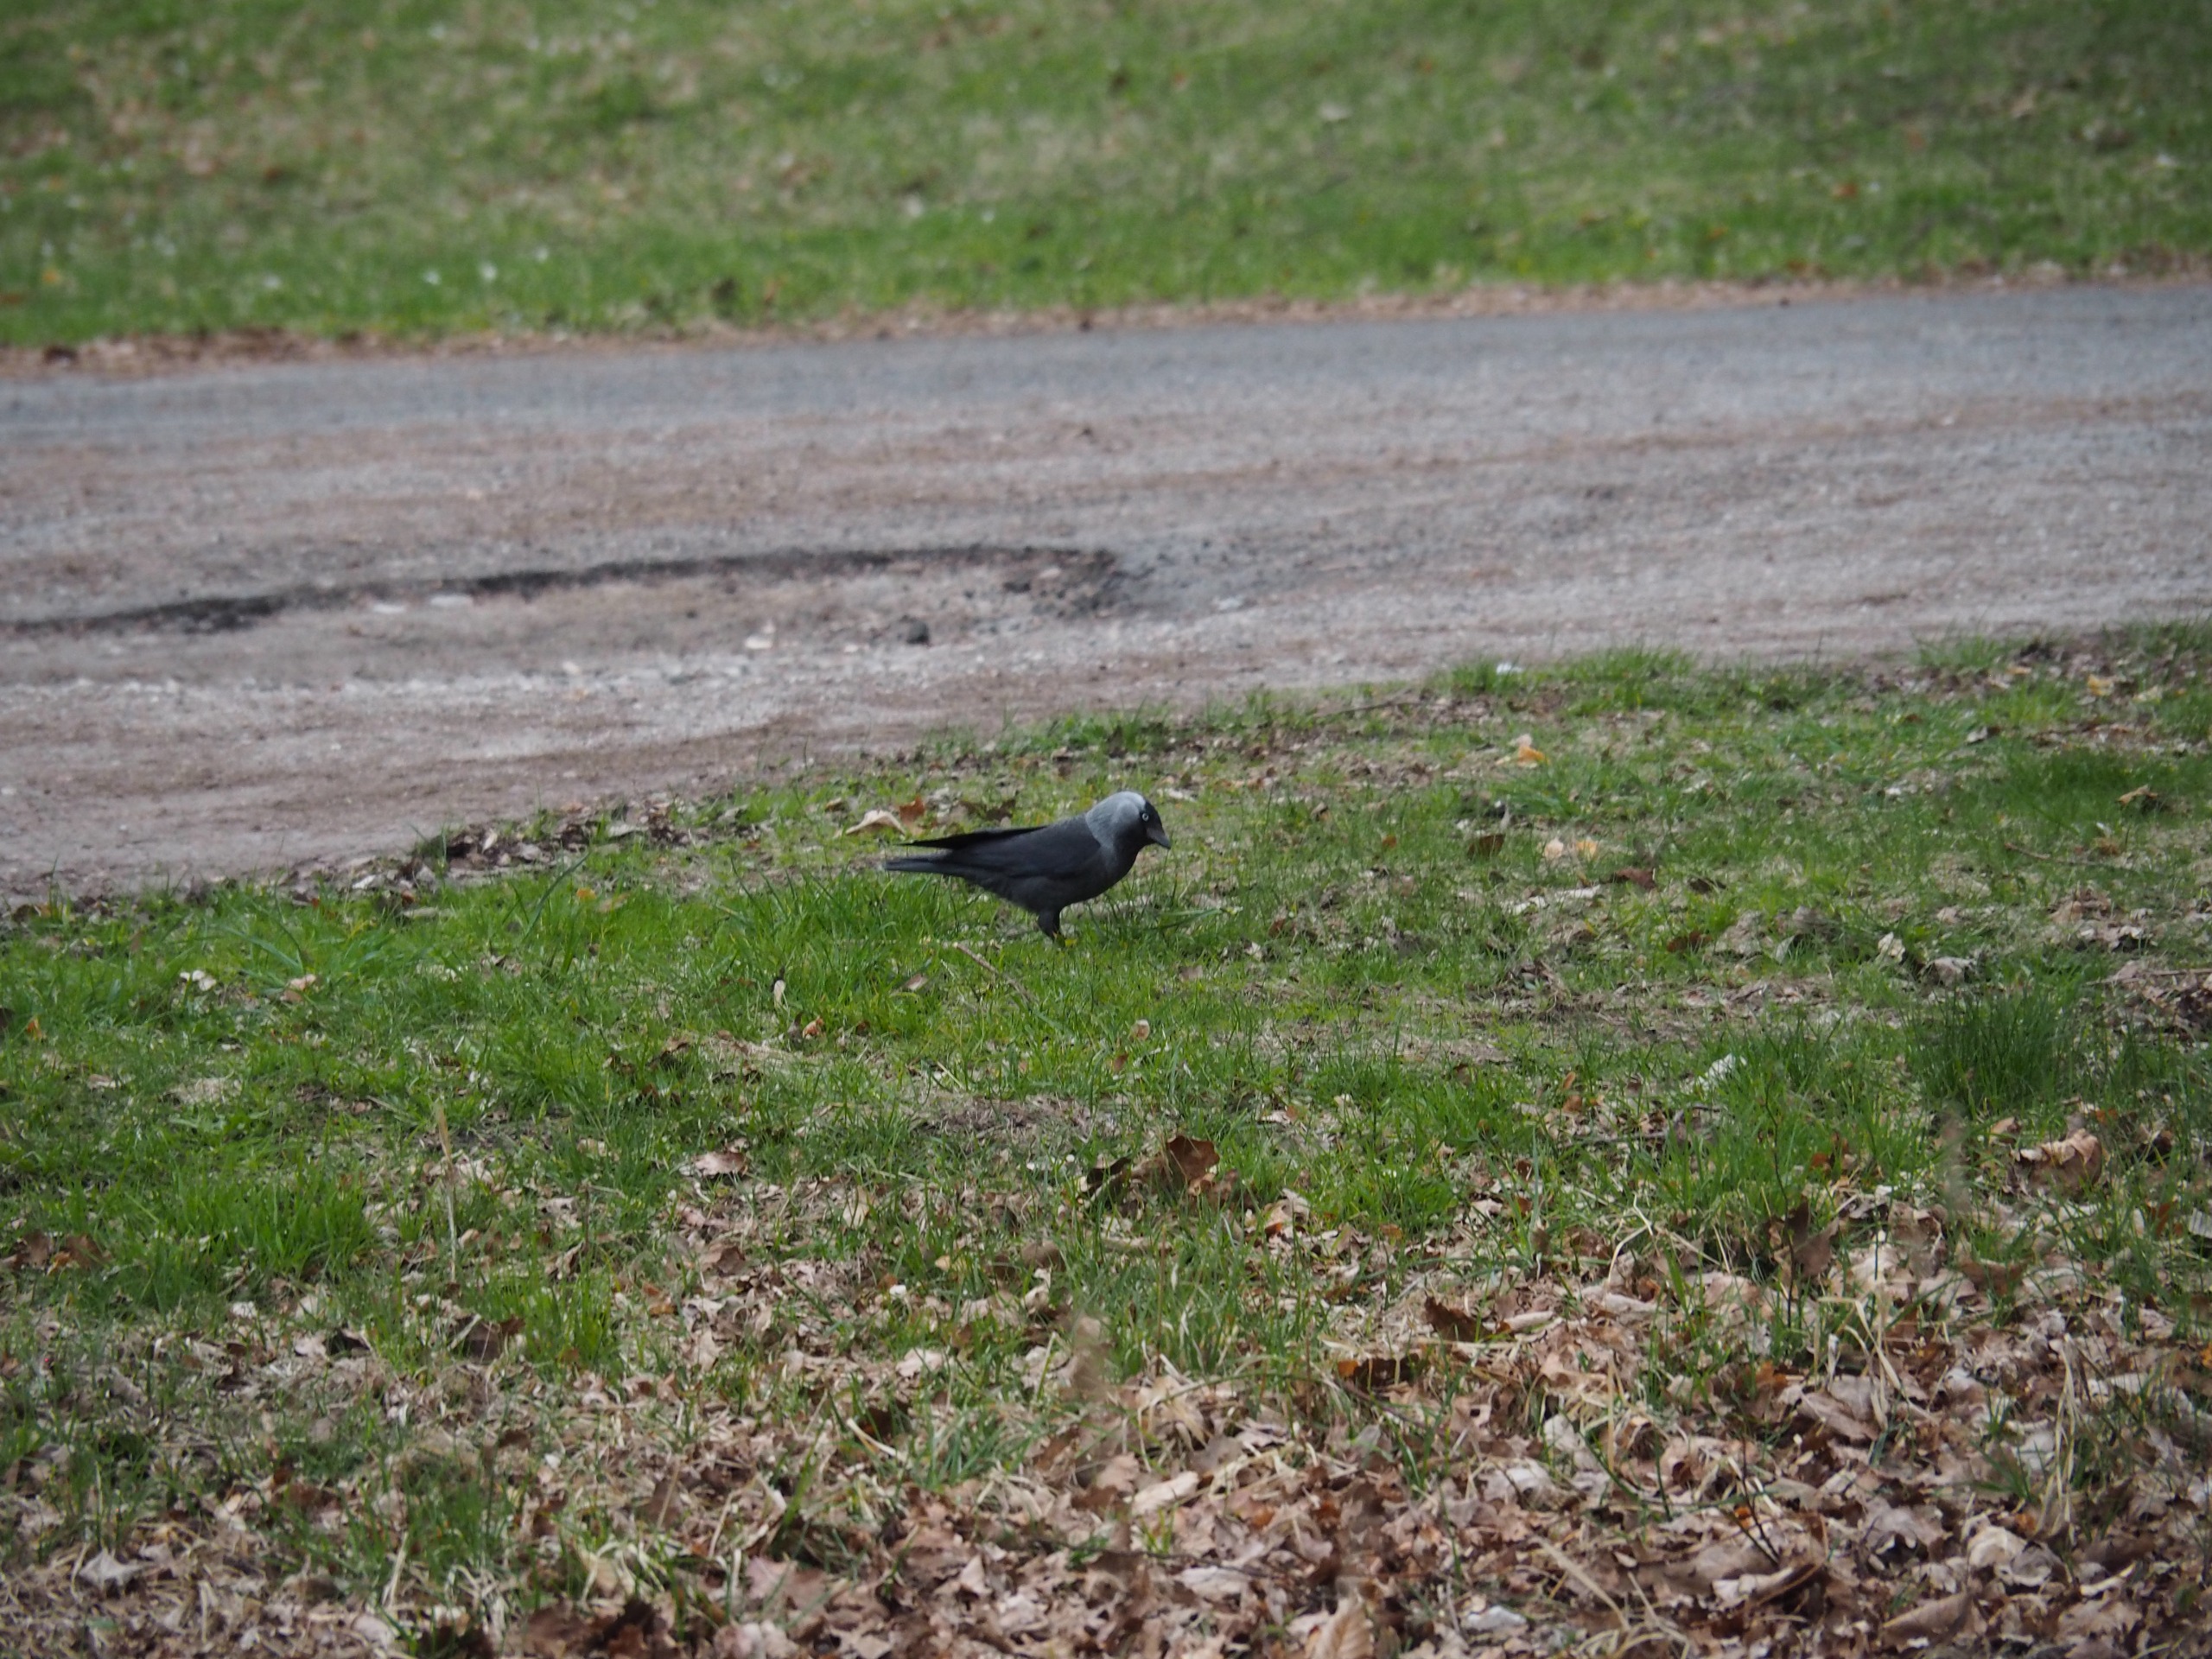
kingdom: Animalia
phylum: Chordata
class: Aves
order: Passeriformes
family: Corvidae
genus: Coloeus
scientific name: Coloeus monedula
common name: Allike
